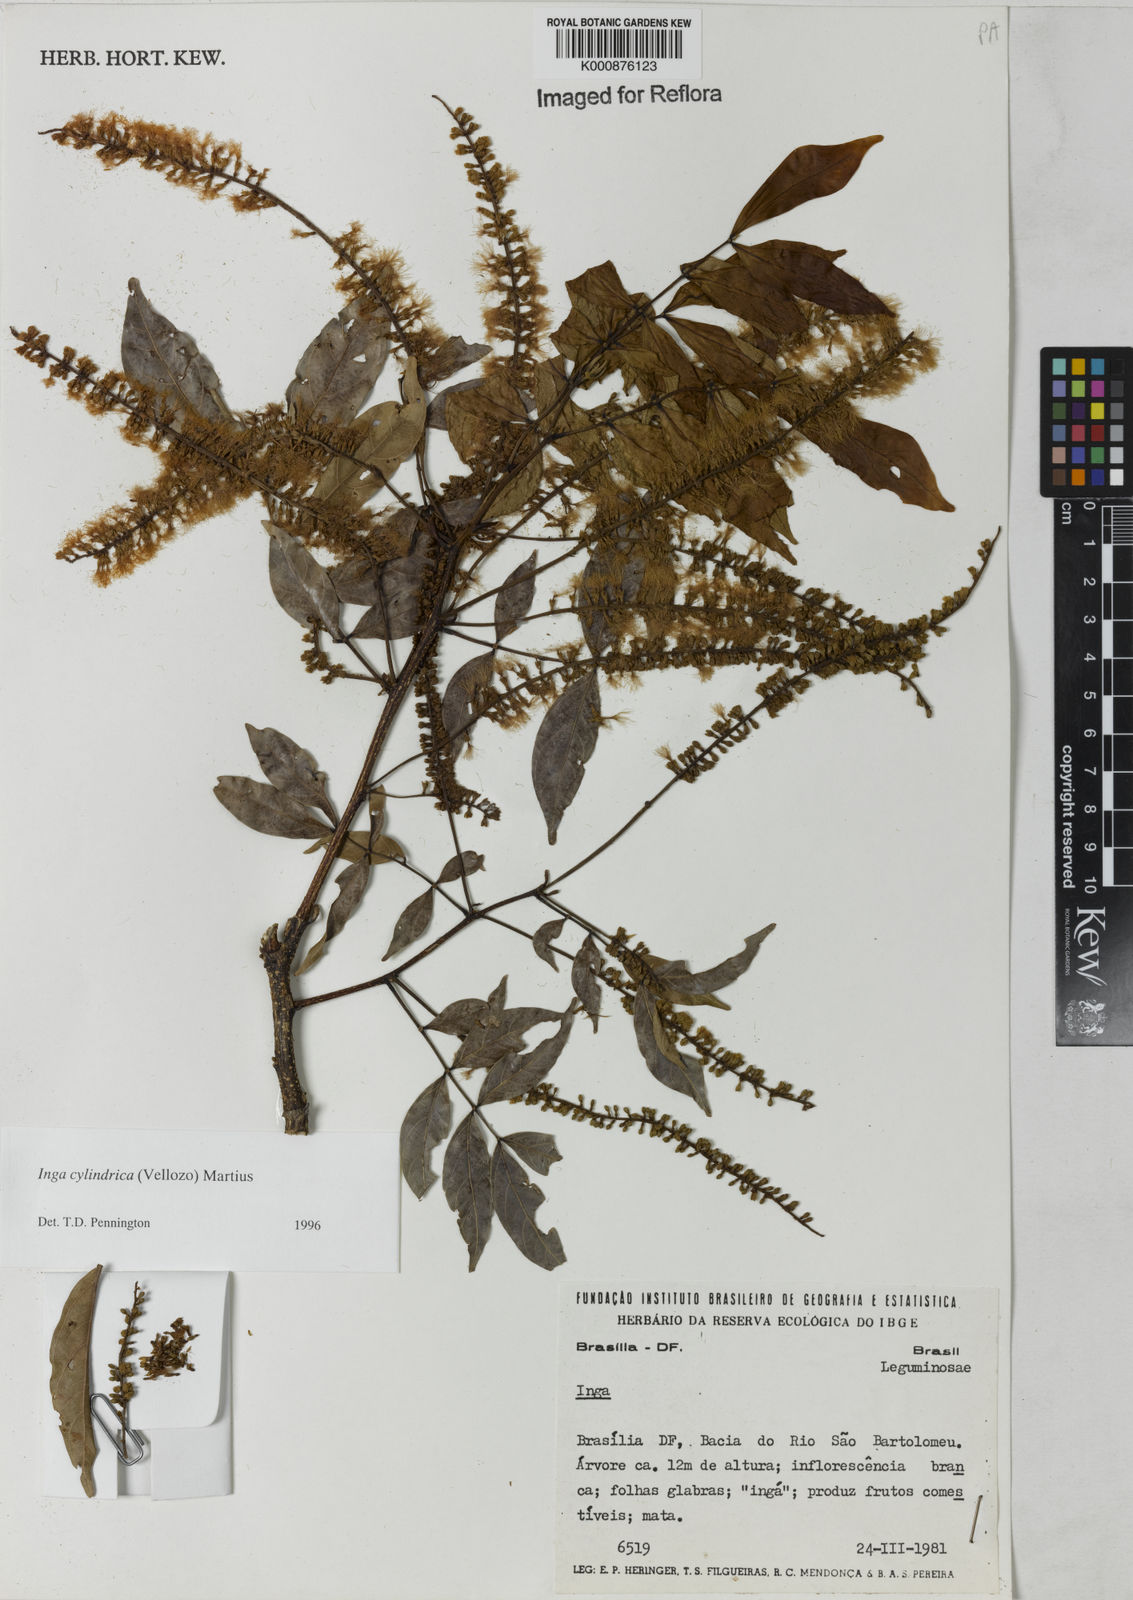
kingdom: Plantae
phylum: Tracheophyta
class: Magnoliopsida
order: Fabales
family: Fabaceae
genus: Inga
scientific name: Inga cylindrica
